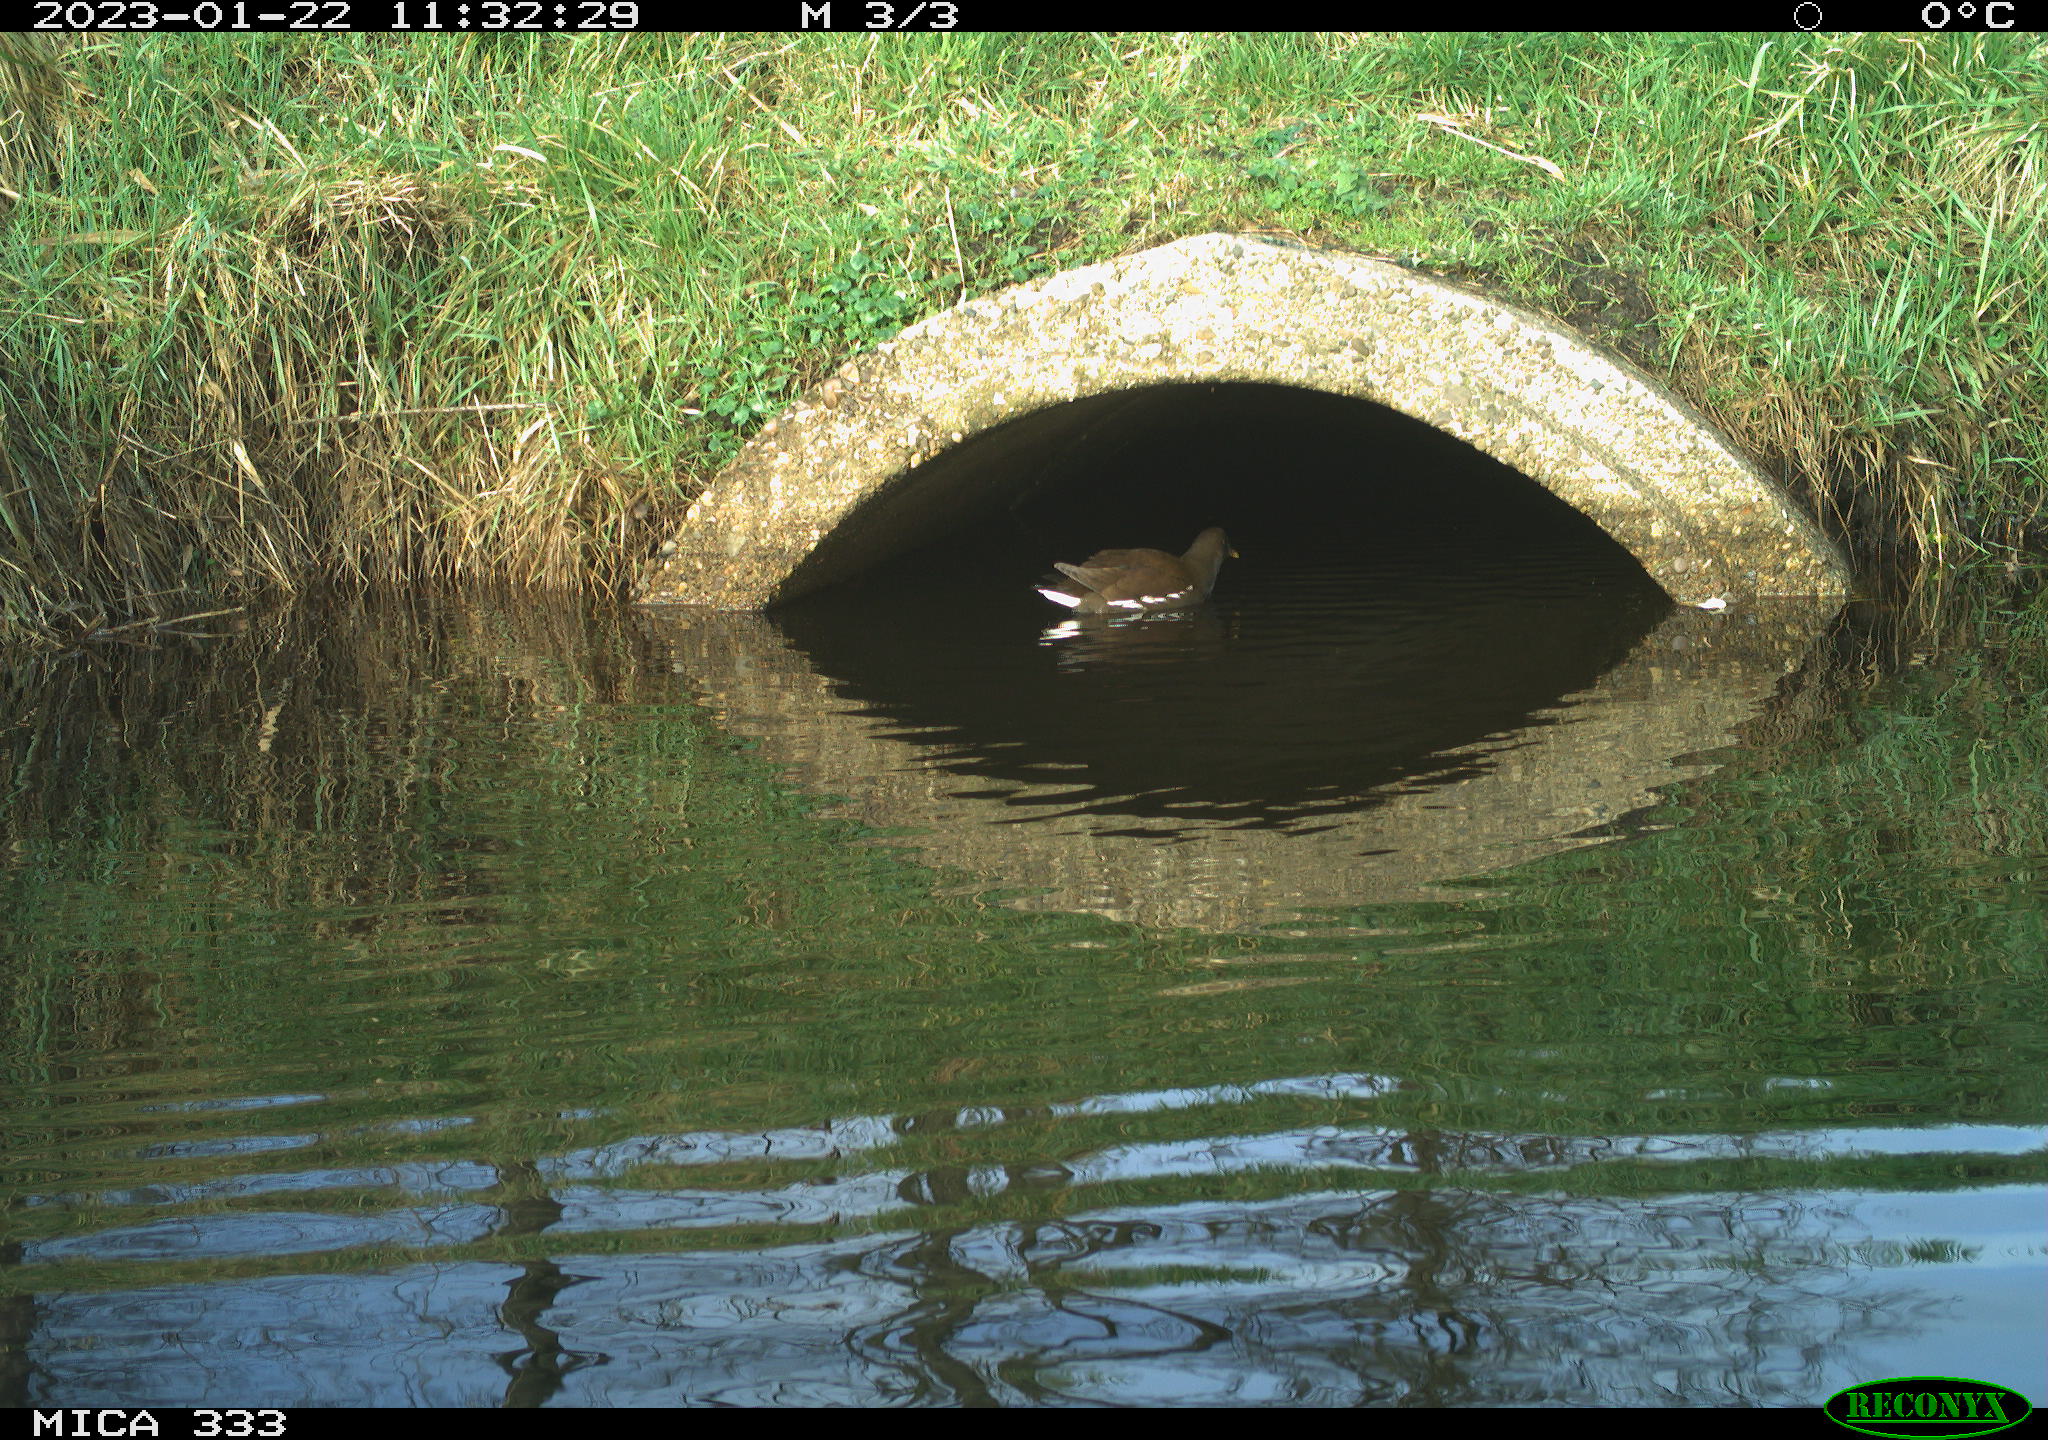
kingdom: Animalia
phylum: Chordata
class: Aves
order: Gruiformes
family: Rallidae
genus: Gallinula
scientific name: Gallinula chloropus
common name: Common moorhen
